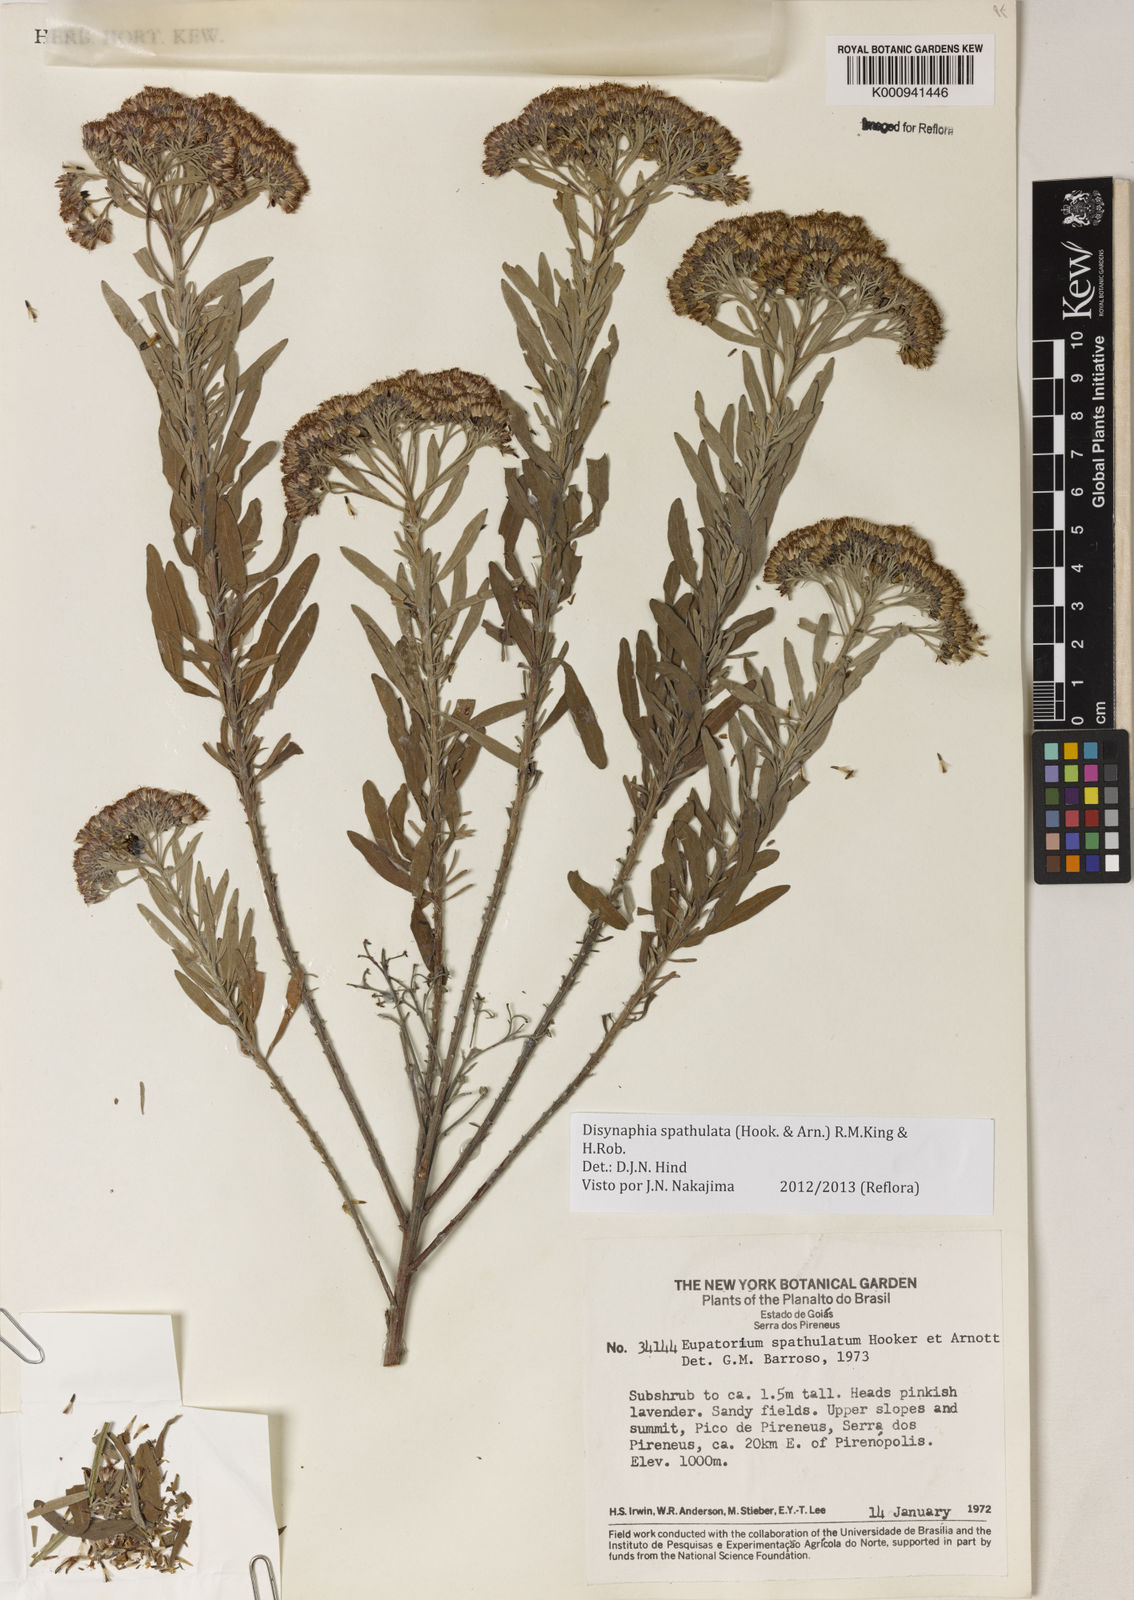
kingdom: Plantae
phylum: Tracheophyta
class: Magnoliopsida
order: Asterales
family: Asteraceae
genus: Disynaphia
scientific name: Disynaphia spathulata
